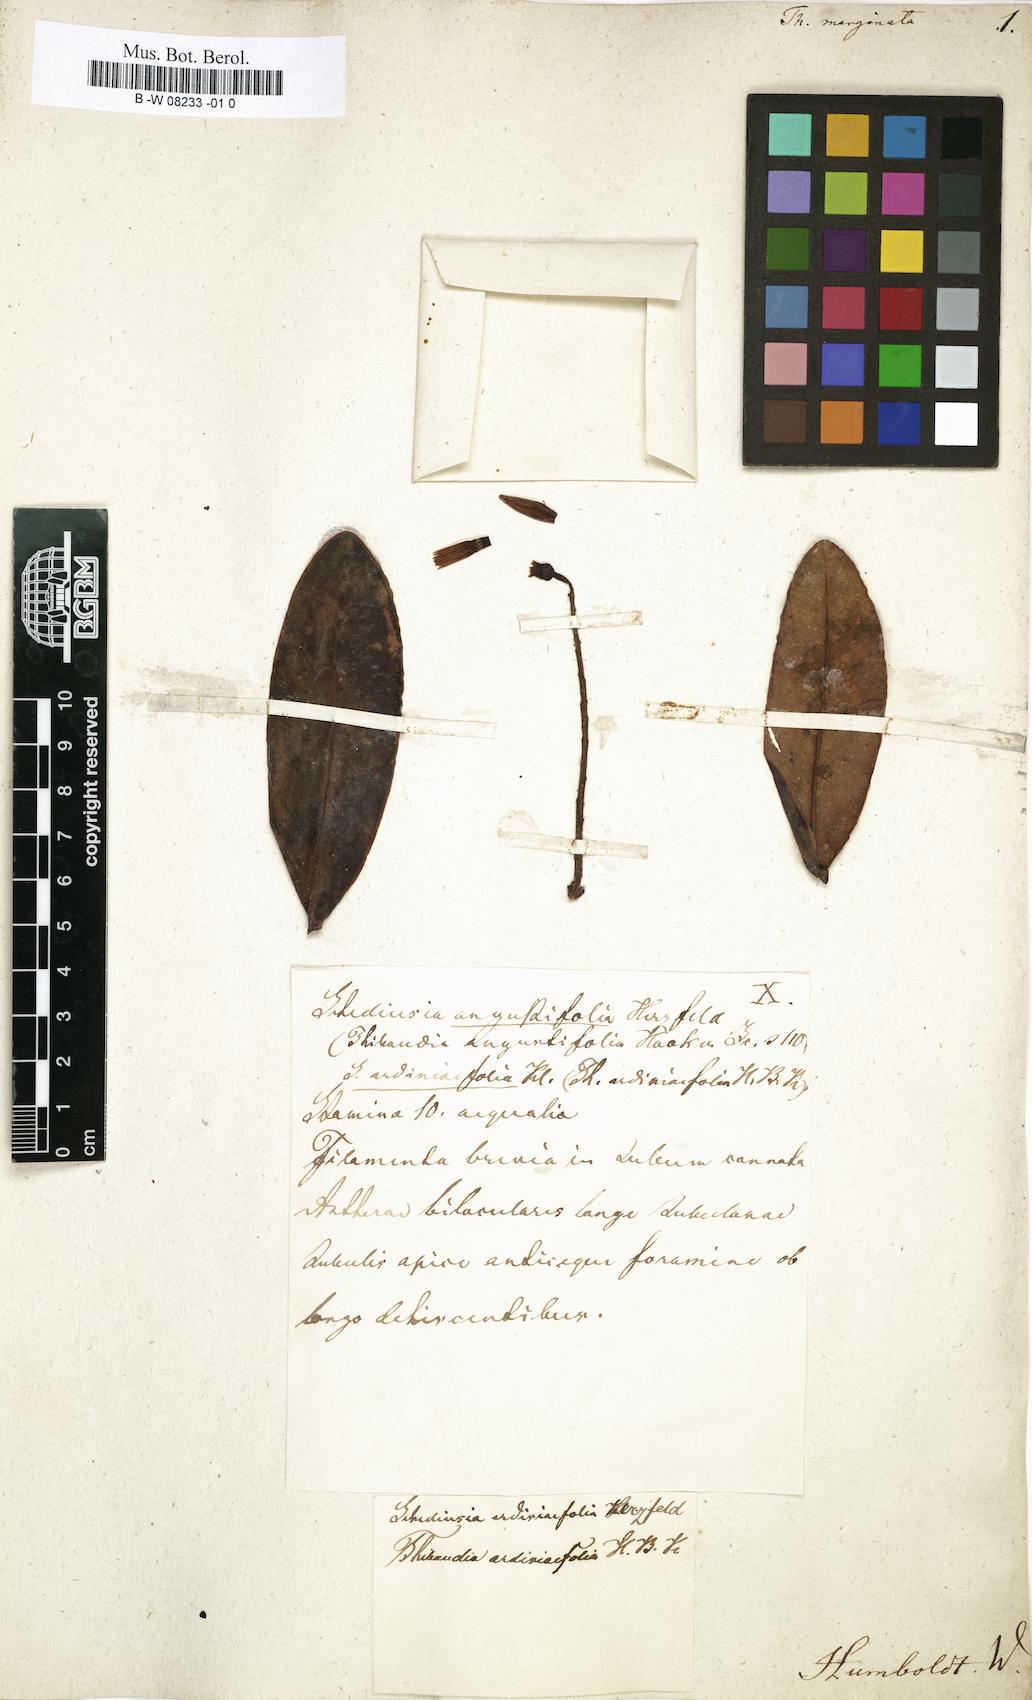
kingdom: Plantae
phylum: Tracheophyta
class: Magnoliopsida
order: Ericales
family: Ericaceae
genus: Thibaudia
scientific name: Thibaudia
